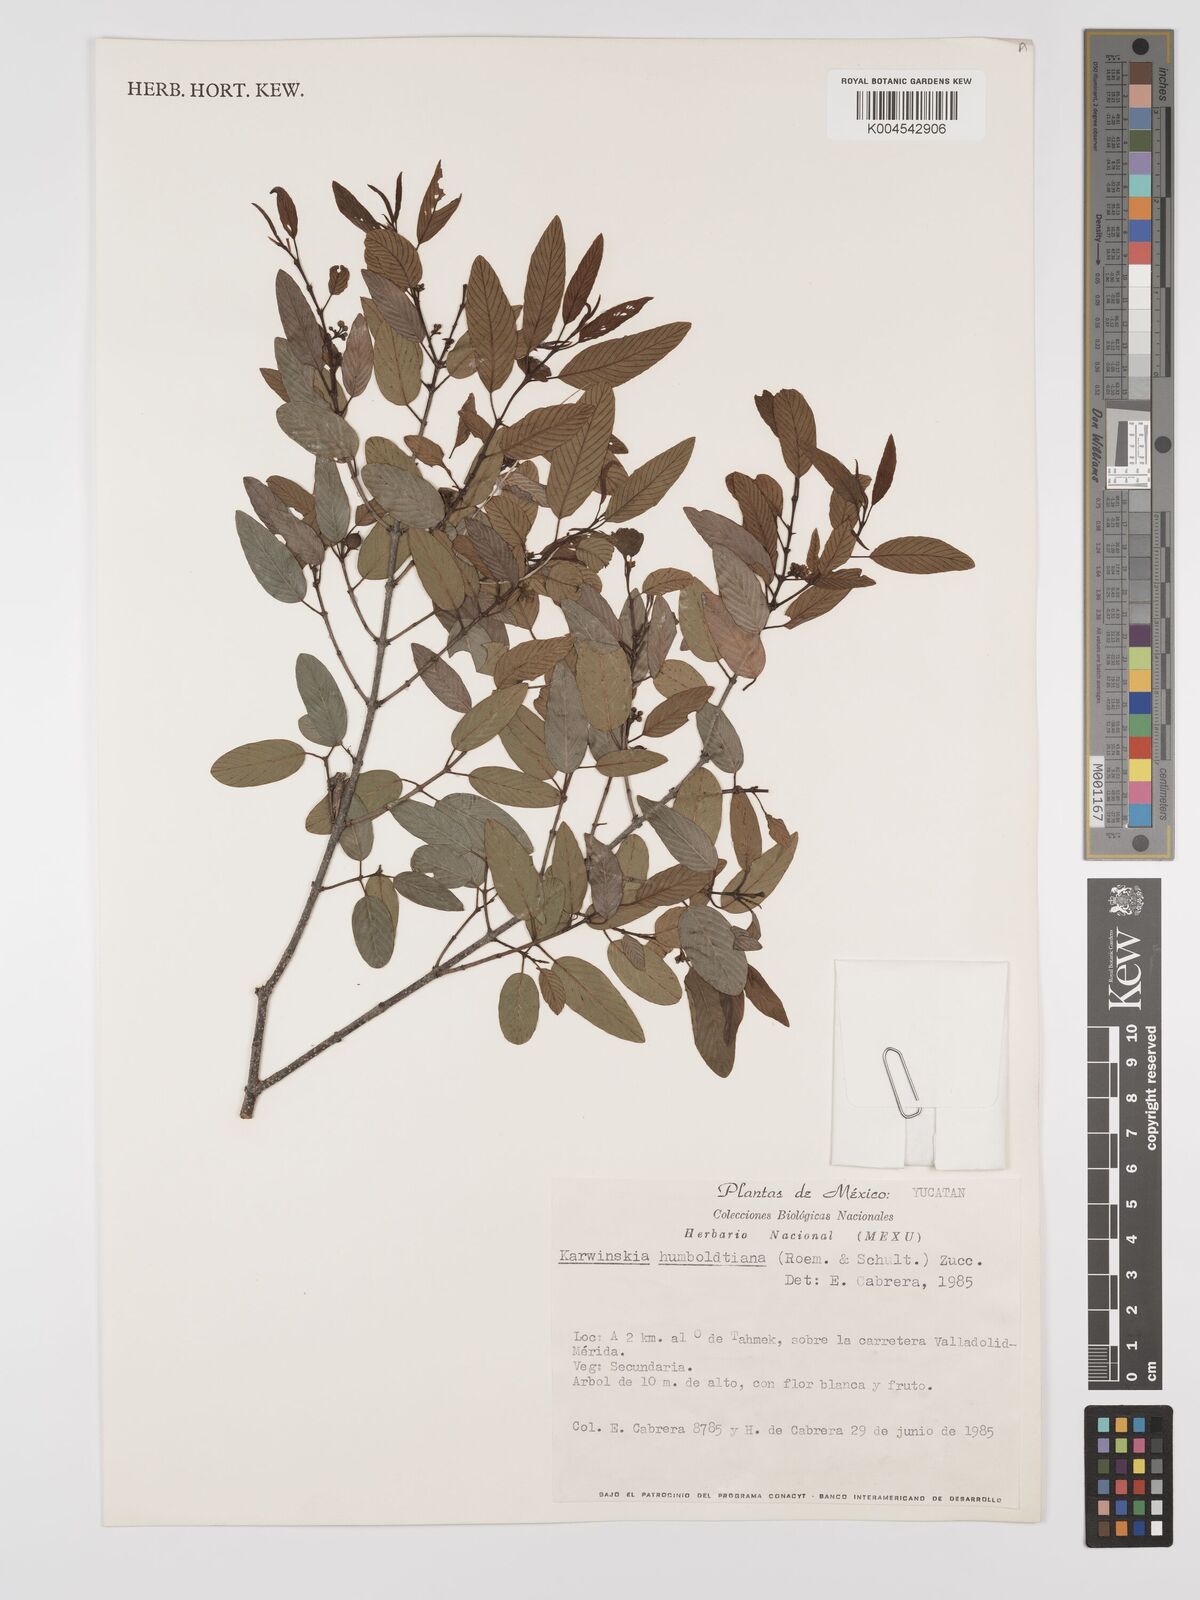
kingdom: Plantae
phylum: Tracheophyta
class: Magnoliopsida
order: Rosales
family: Rhamnaceae
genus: Karwinskia
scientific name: Karwinskia humboldtiana
